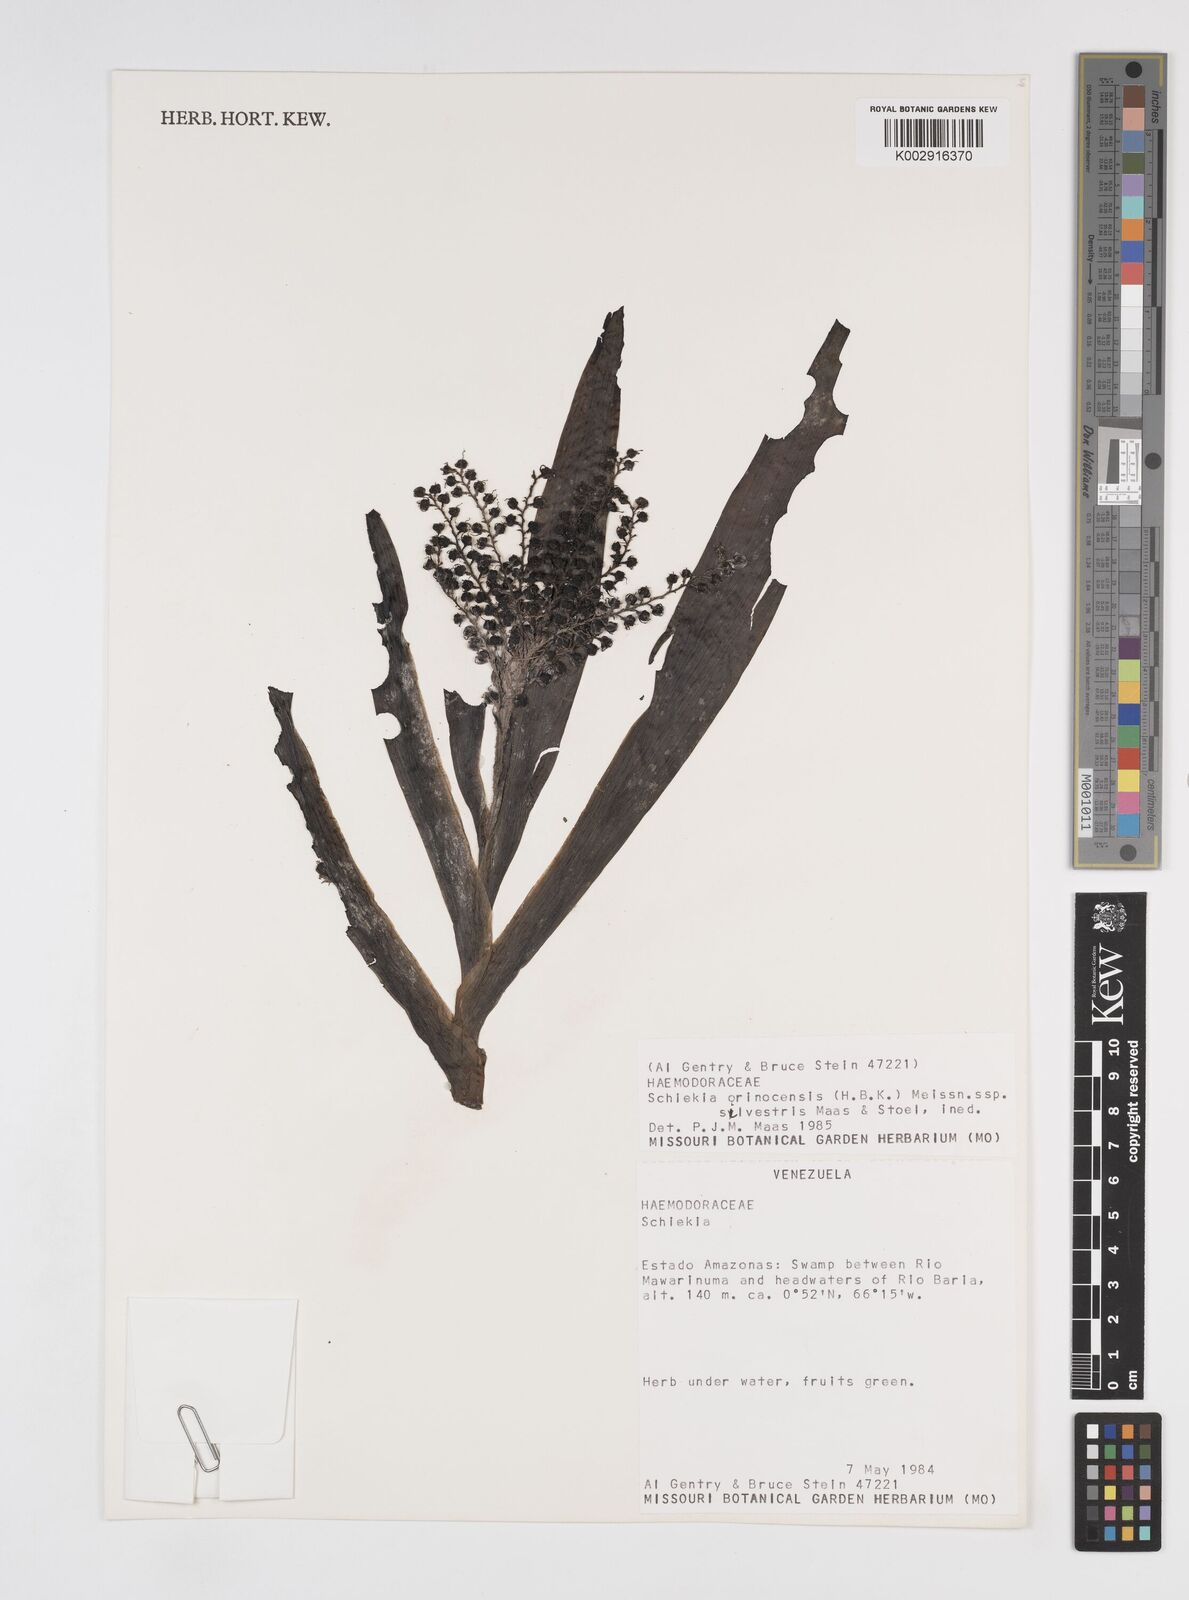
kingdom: Plantae
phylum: Tracheophyta
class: Liliopsida
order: Commelinales
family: Haemodoraceae
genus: Schiekia
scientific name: Schiekia silvestris
